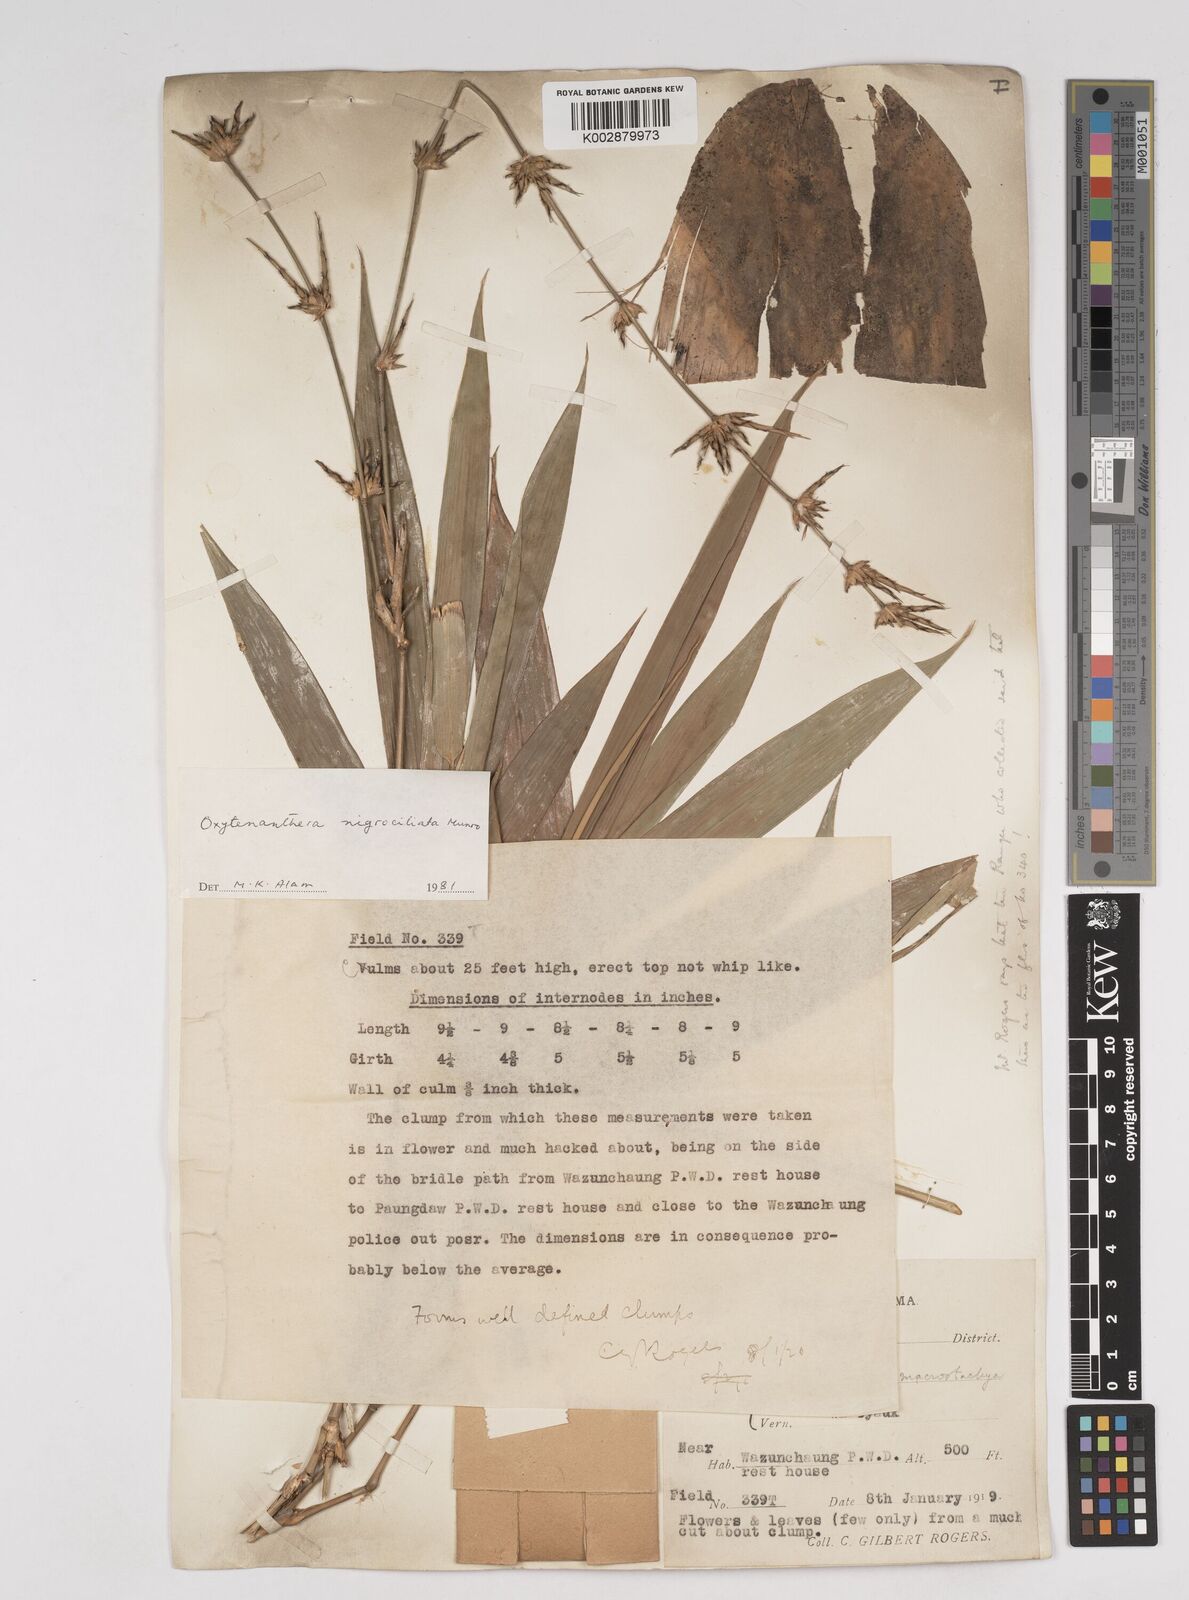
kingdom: Plantae
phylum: Tracheophyta
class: Liliopsida
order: Poales
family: Poaceae
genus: Gigantochloa
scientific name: Gigantochloa nigrociliata
